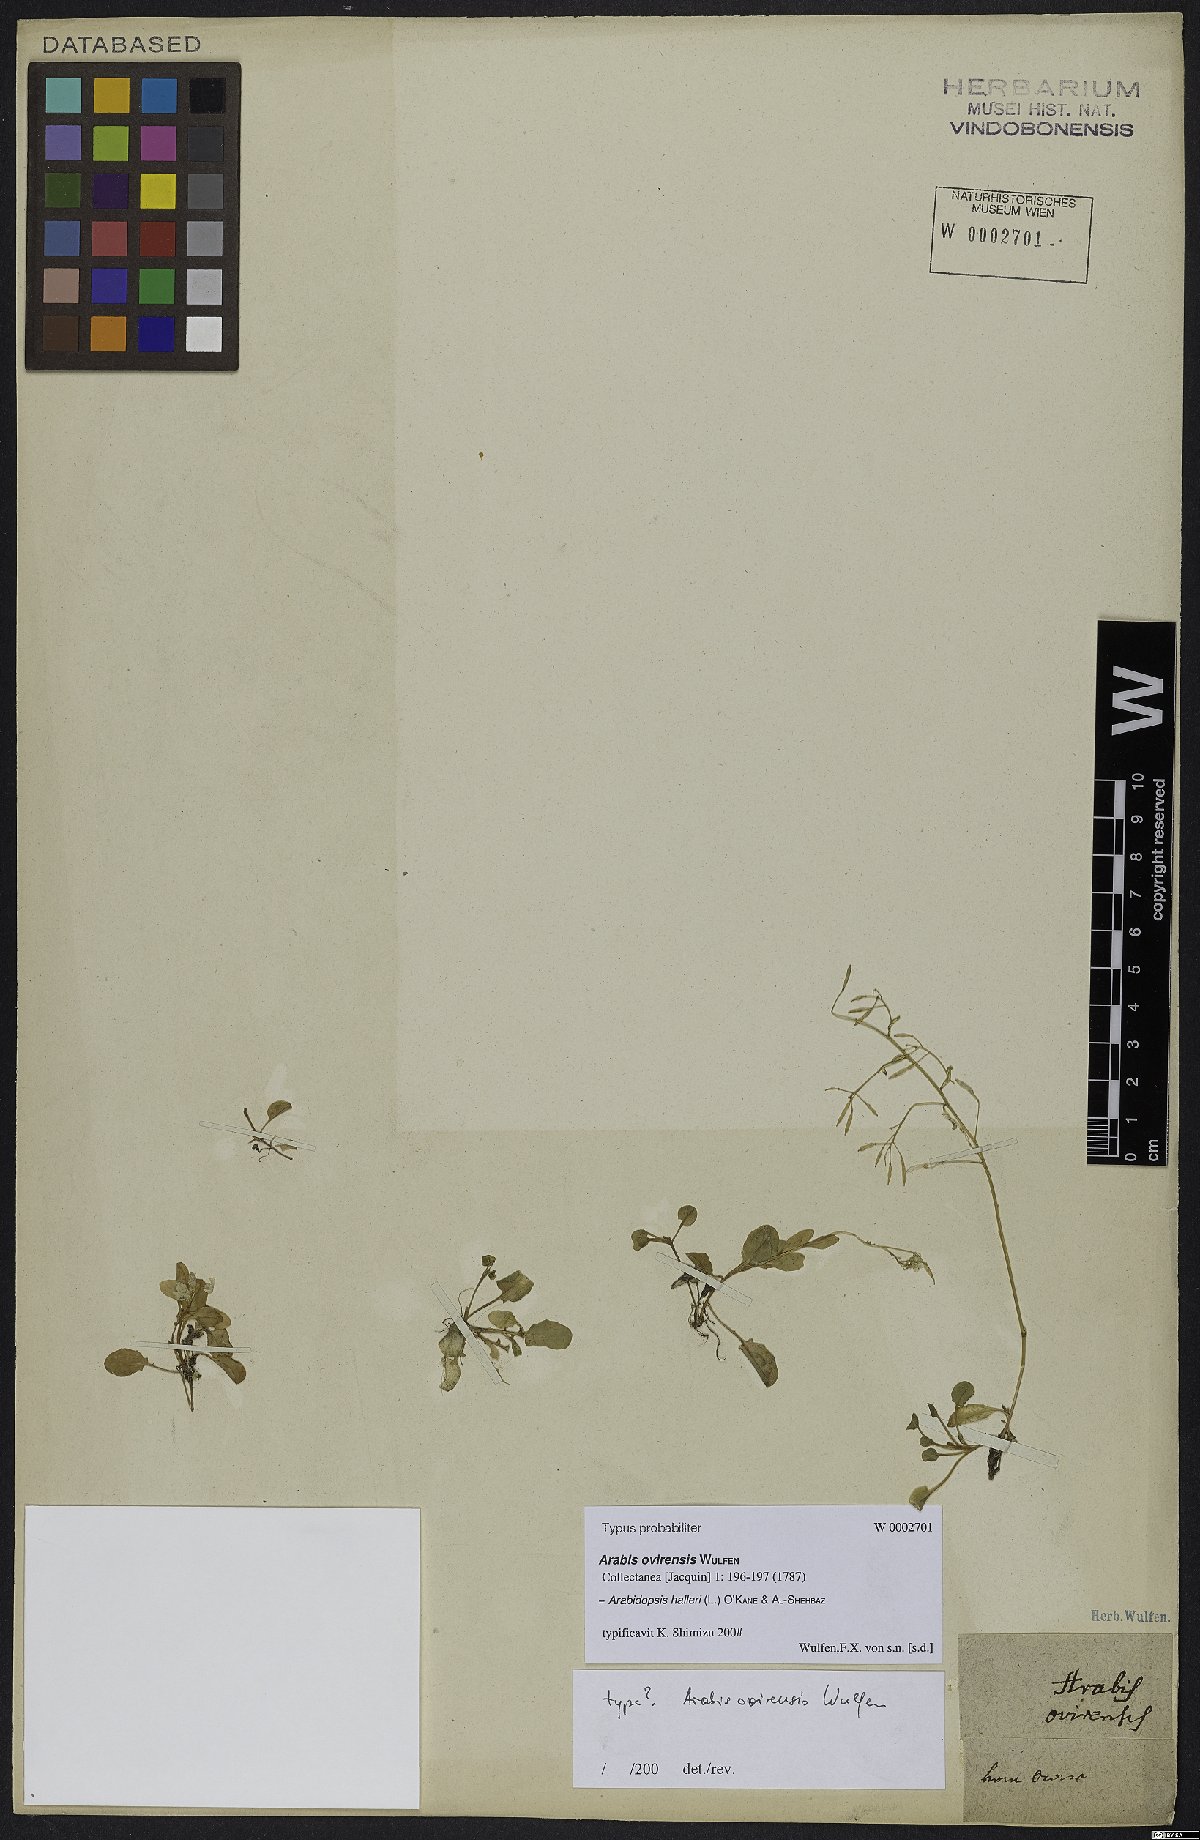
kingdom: Plantae
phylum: Tracheophyta
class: Magnoliopsida
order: Brassicales
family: Brassicaceae
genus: Arabidopsis
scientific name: Arabidopsis halleri
